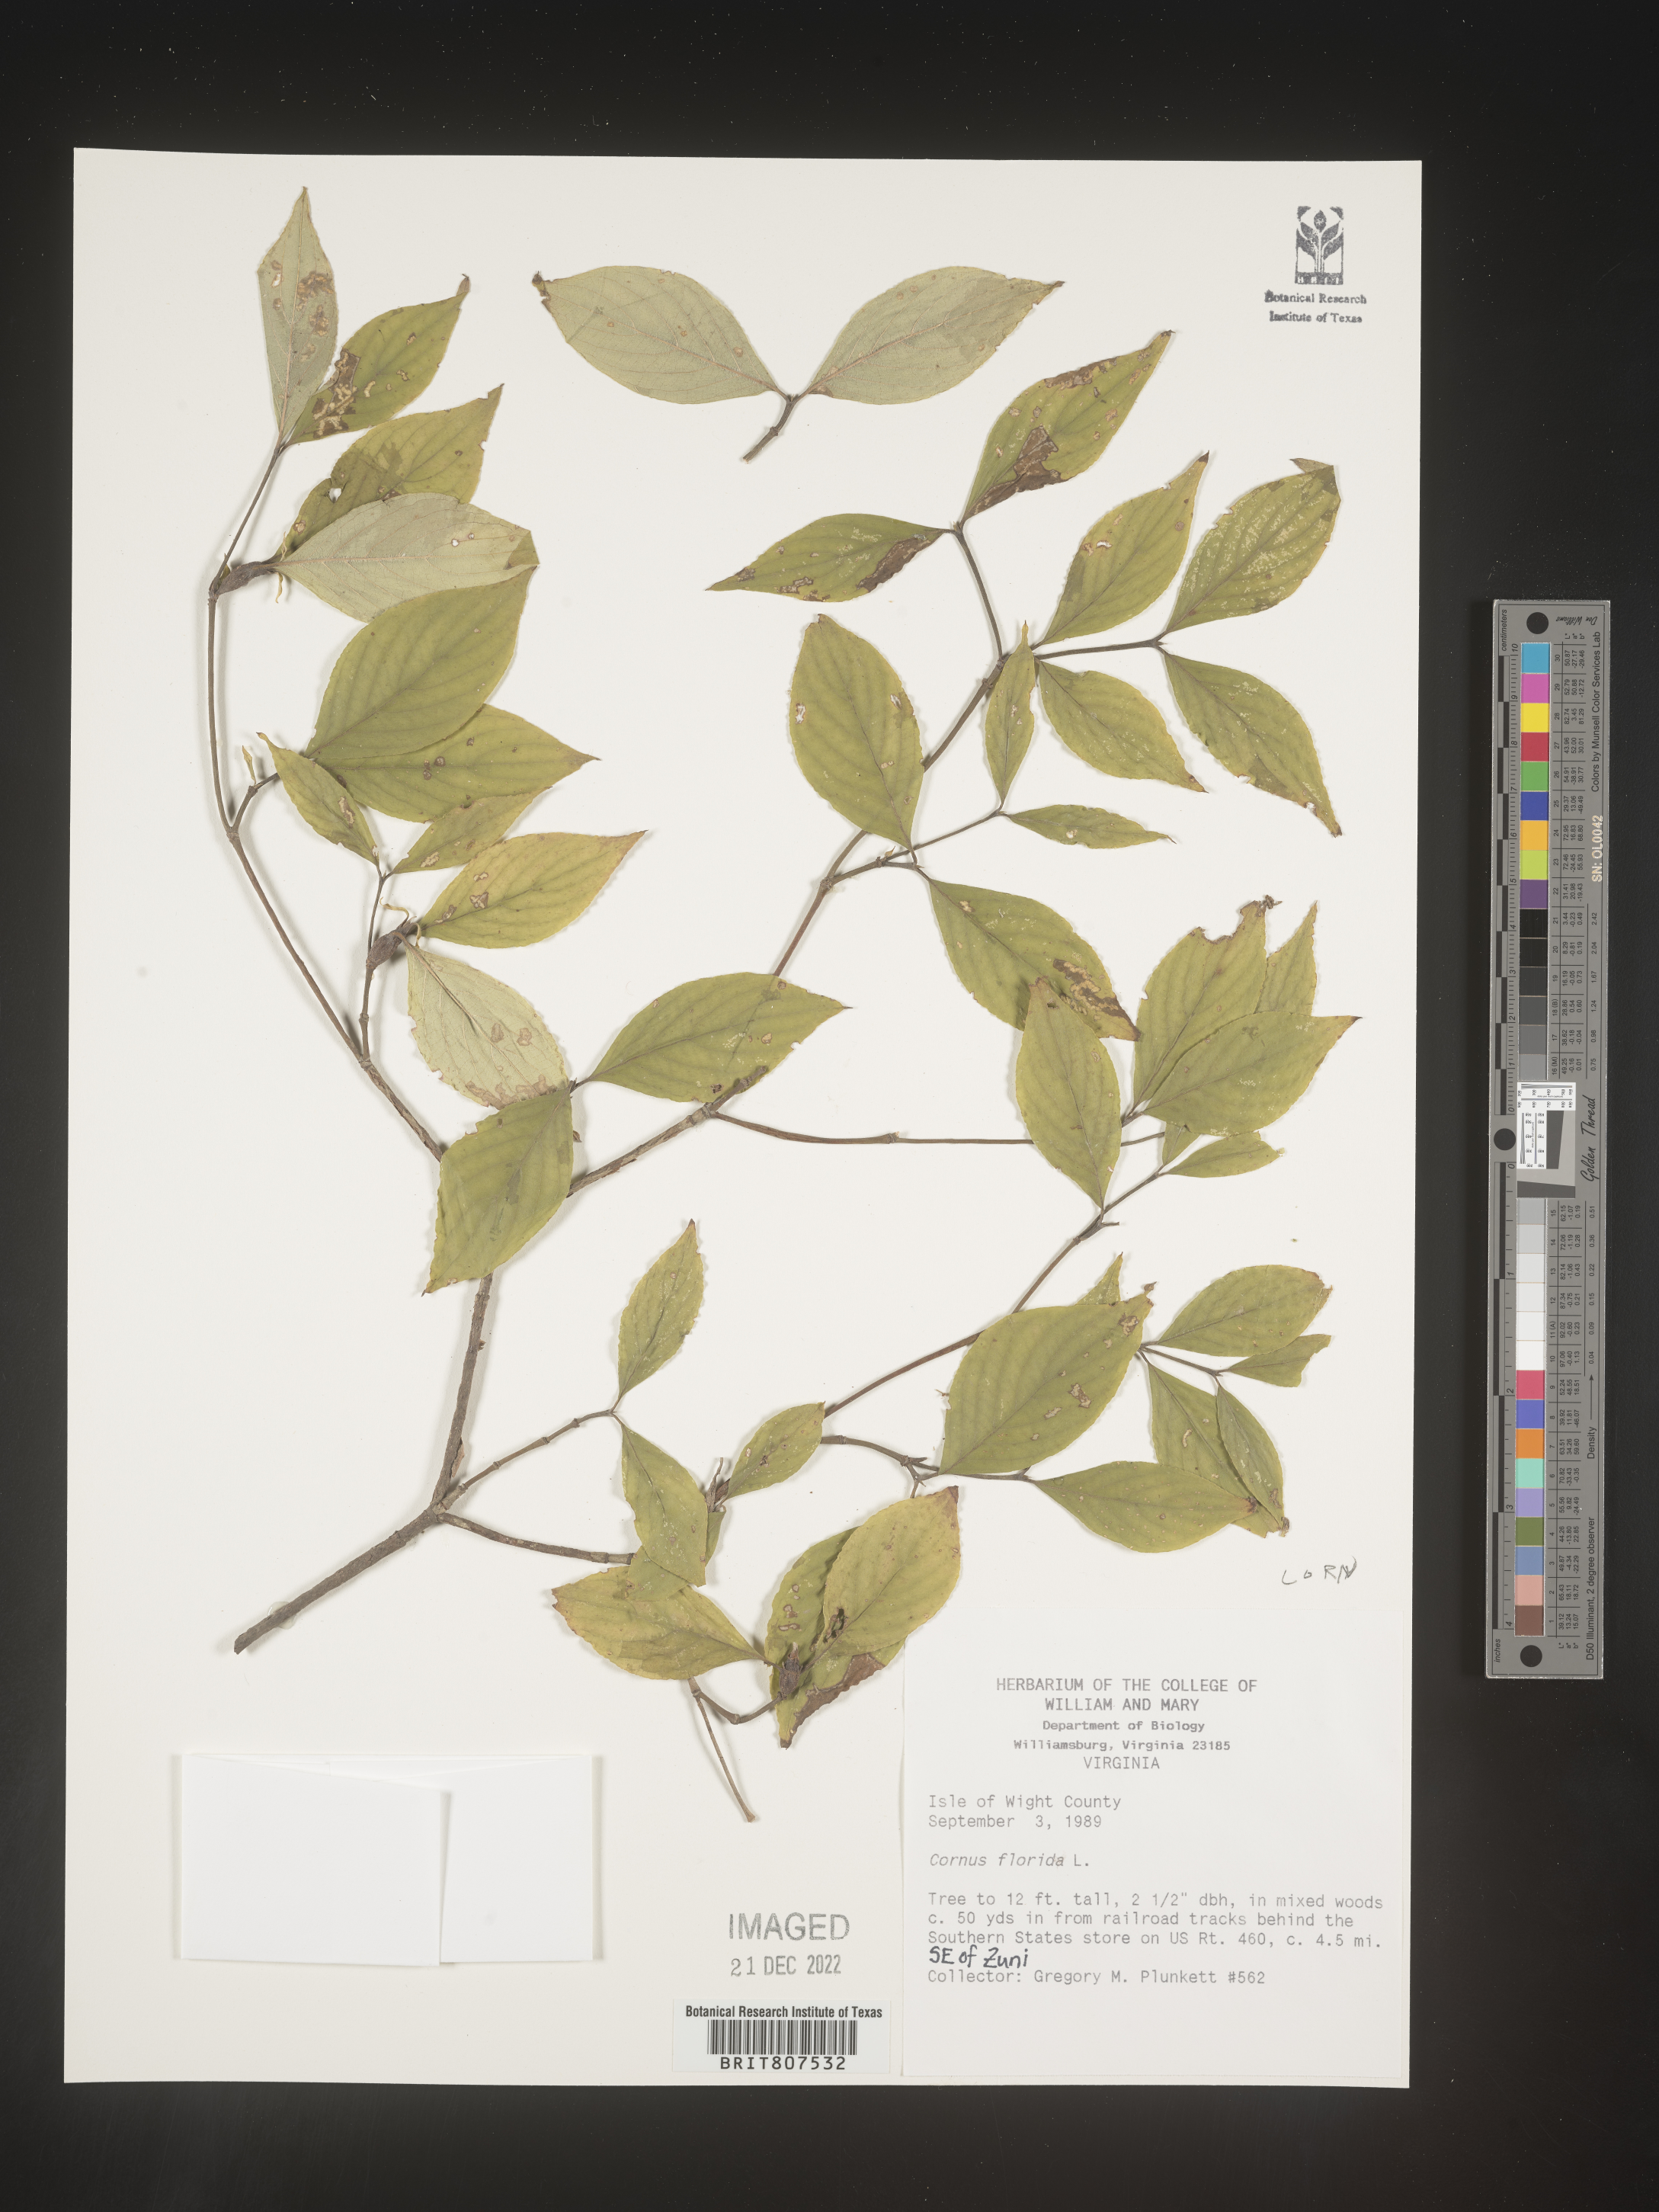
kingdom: Plantae
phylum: Tracheophyta
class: Magnoliopsida
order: Cornales
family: Cornaceae
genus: Cornus
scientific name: Cornus florida
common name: Flowering dogwood
